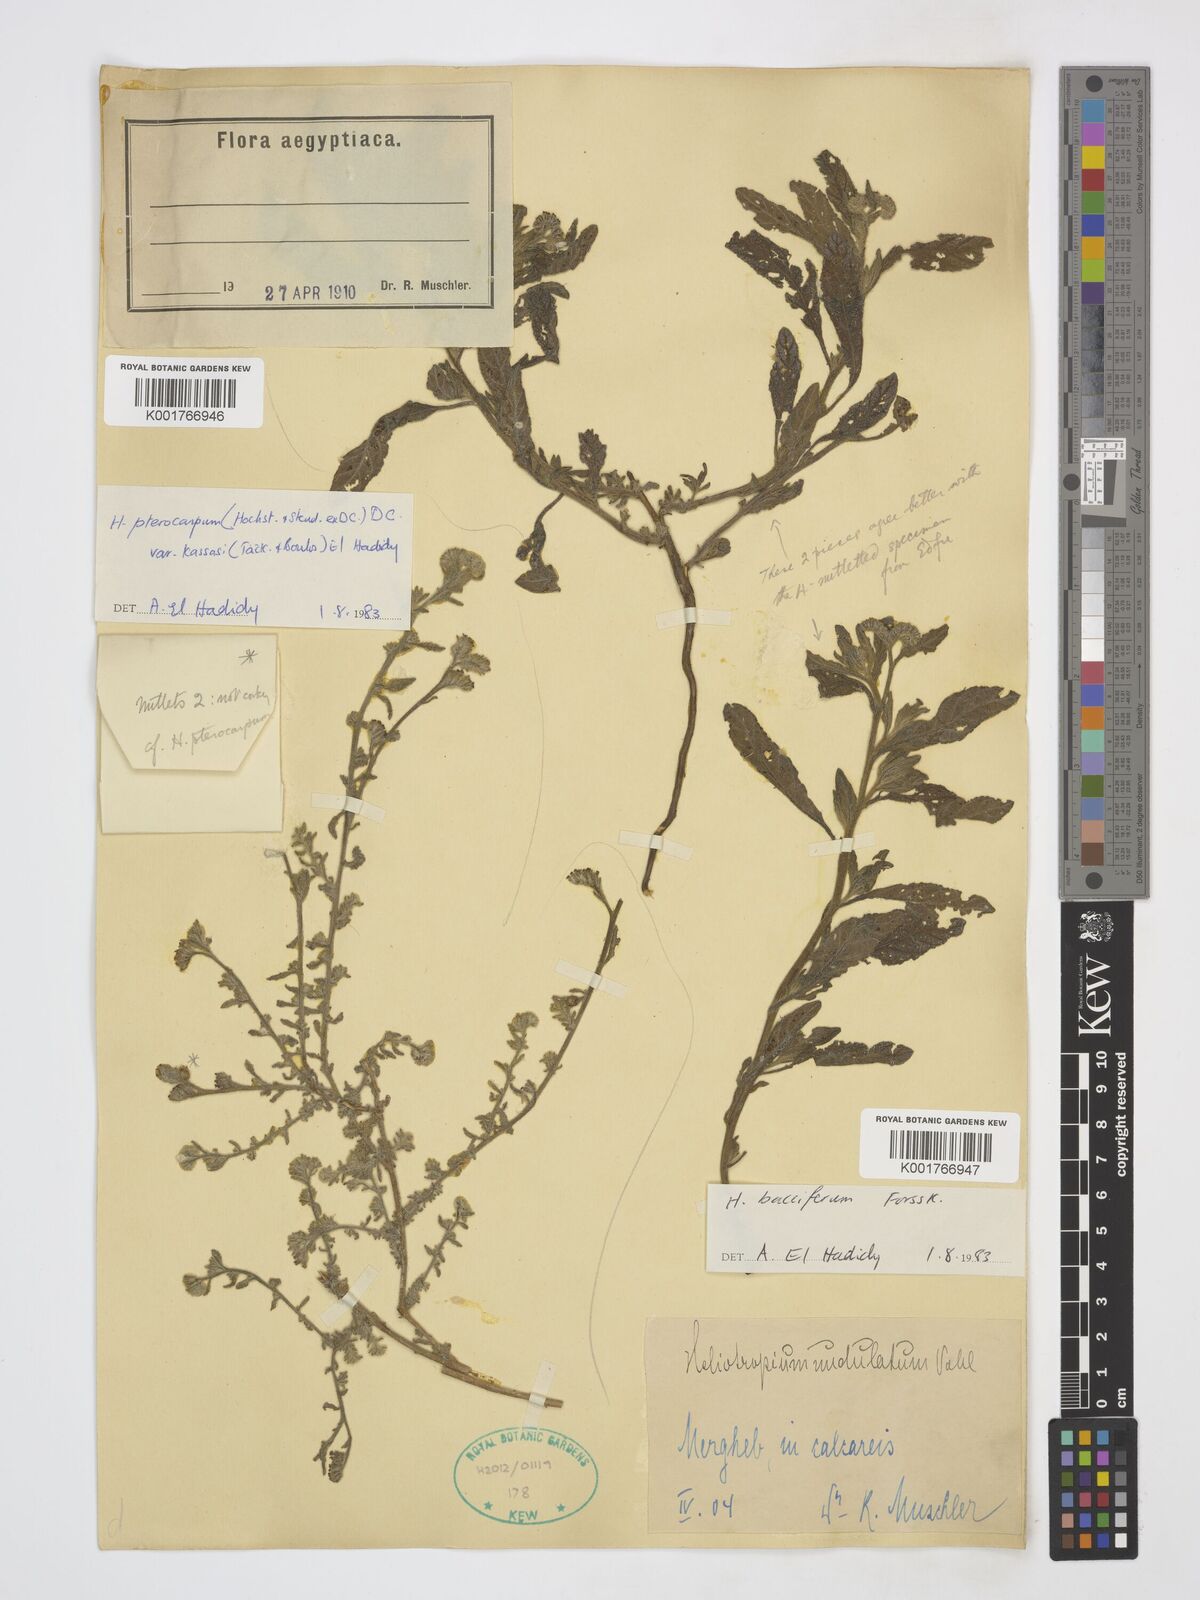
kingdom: Plantae
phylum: Tracheophyta
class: Magnoliopsida
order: Boraginales
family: Heliotropiaceae
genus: Heliotropium
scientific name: Heliotropium bacciferum
